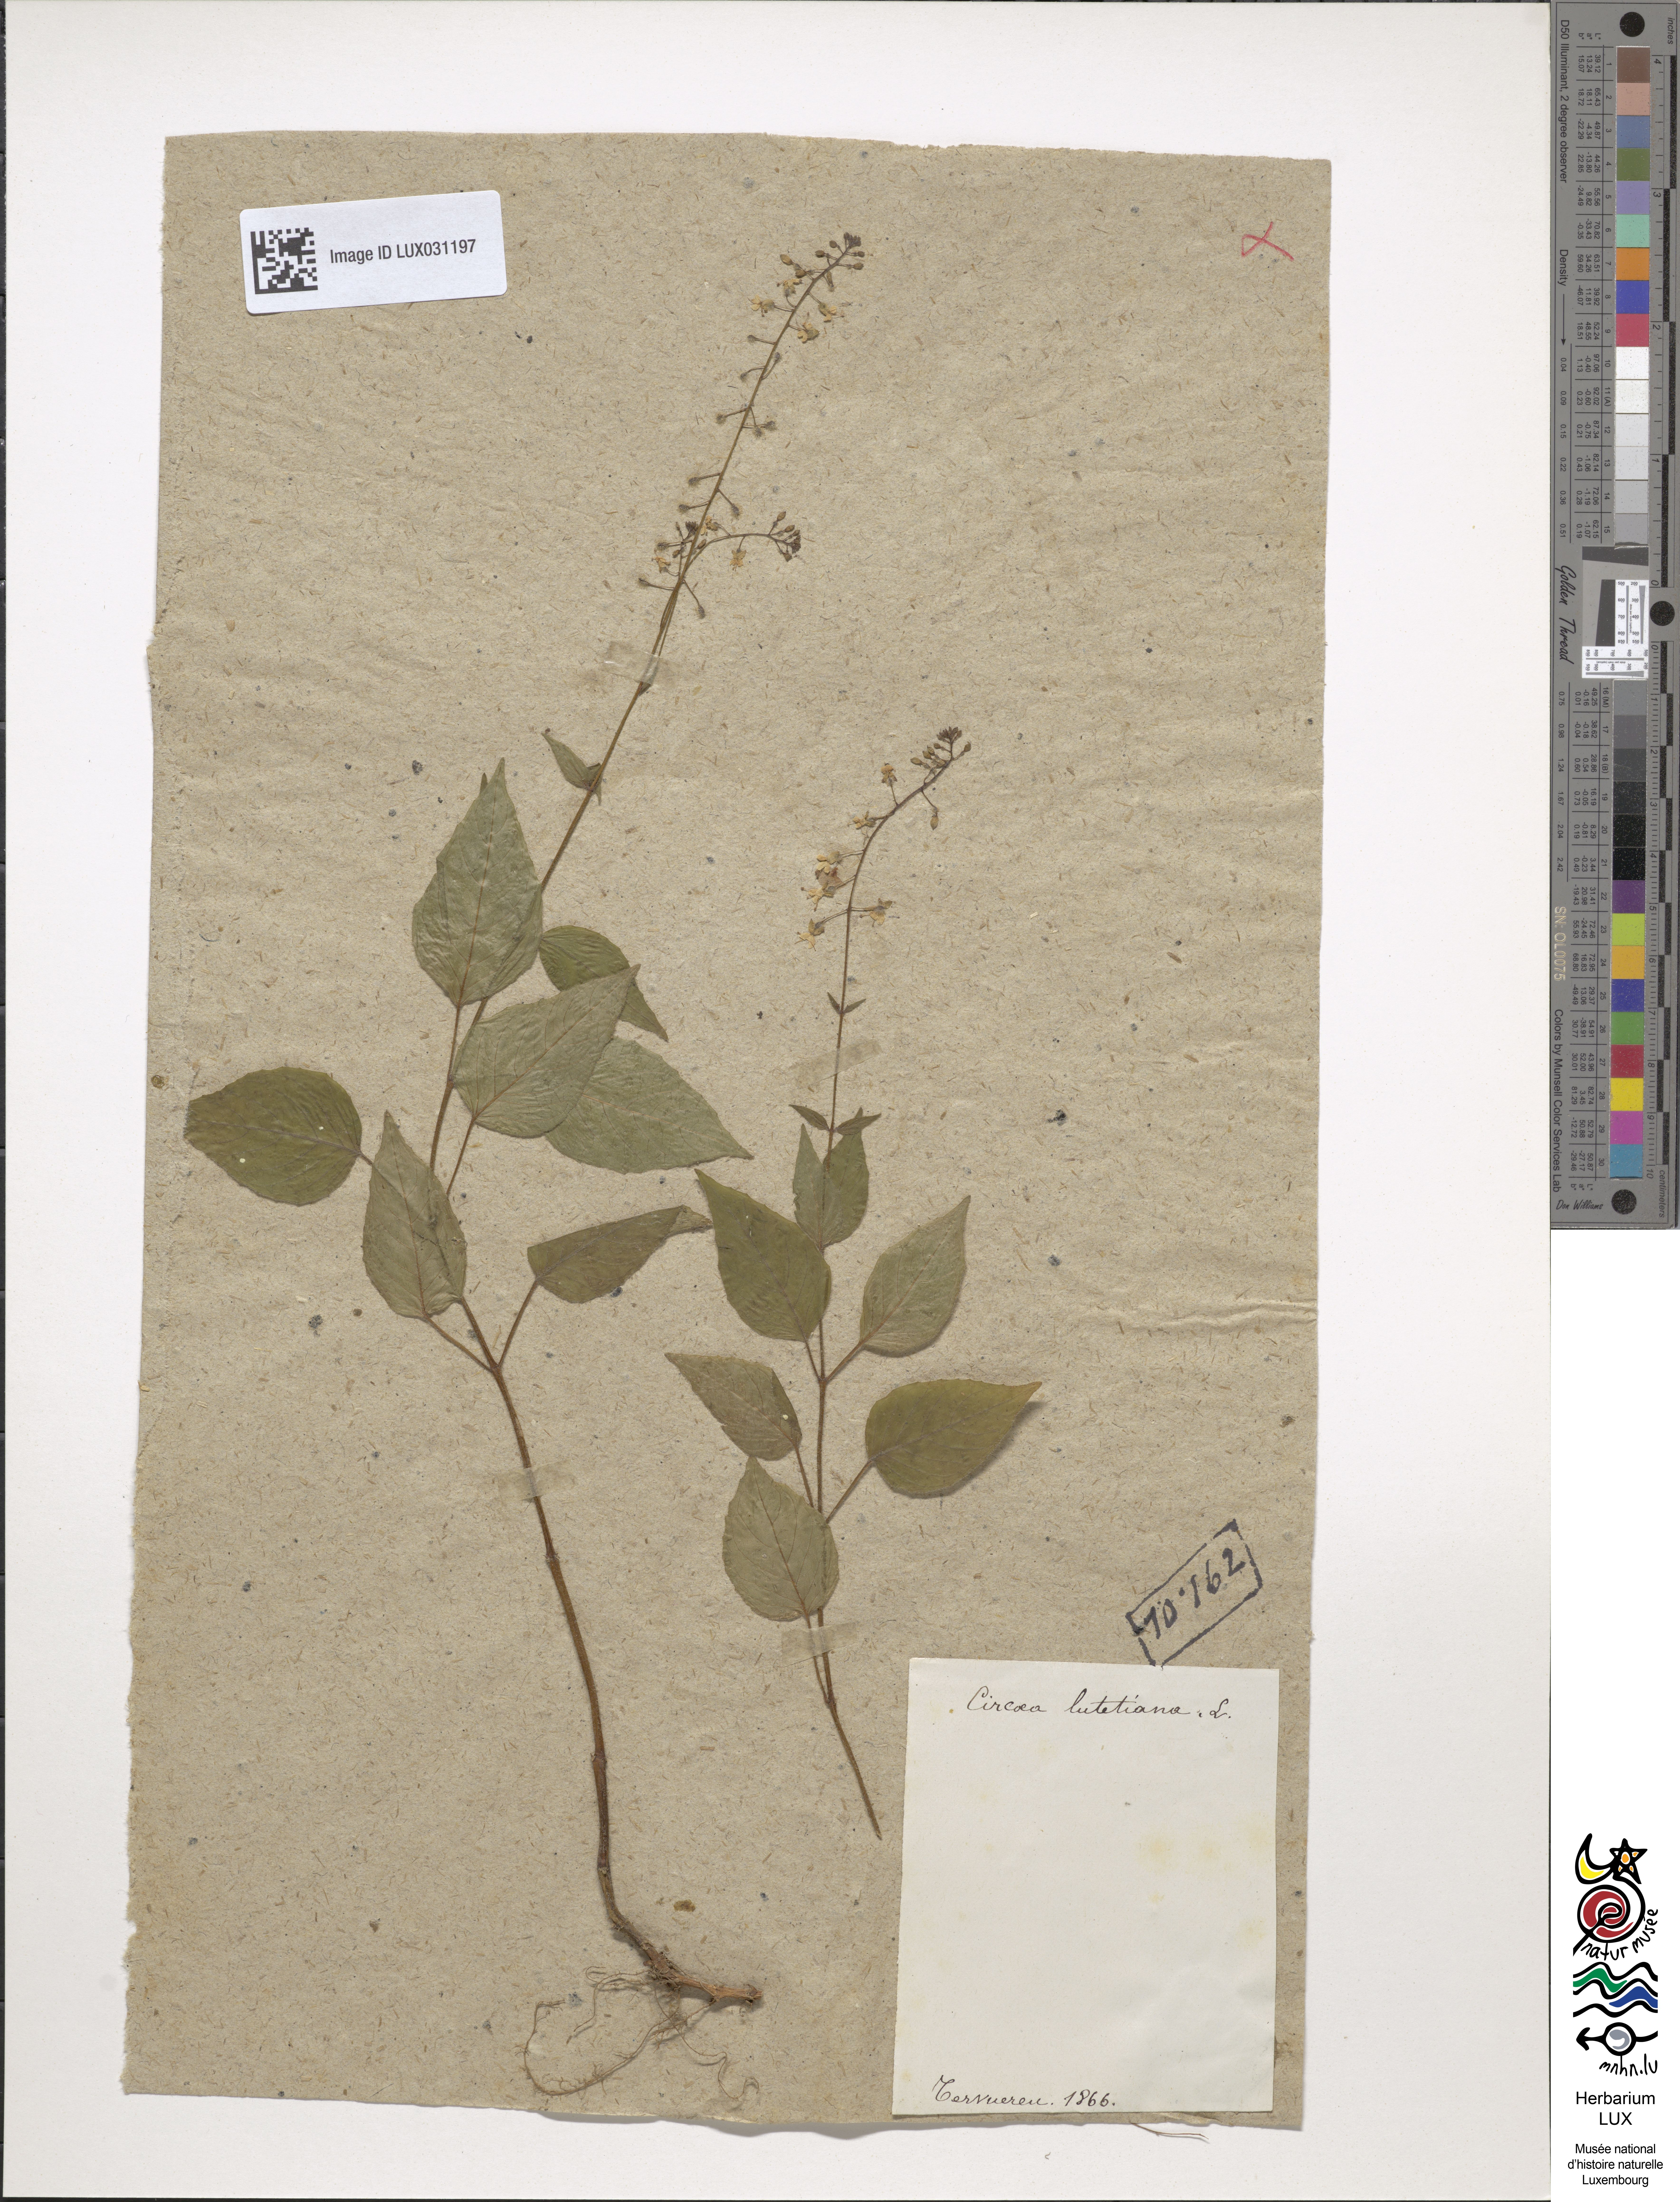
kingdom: Plantae
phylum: Tracheophyta
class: Magnoliopsida
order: Myrtales
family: Onagraceae
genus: Circaea
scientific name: Circaea lutetiana
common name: Enchanter's-nightshade
